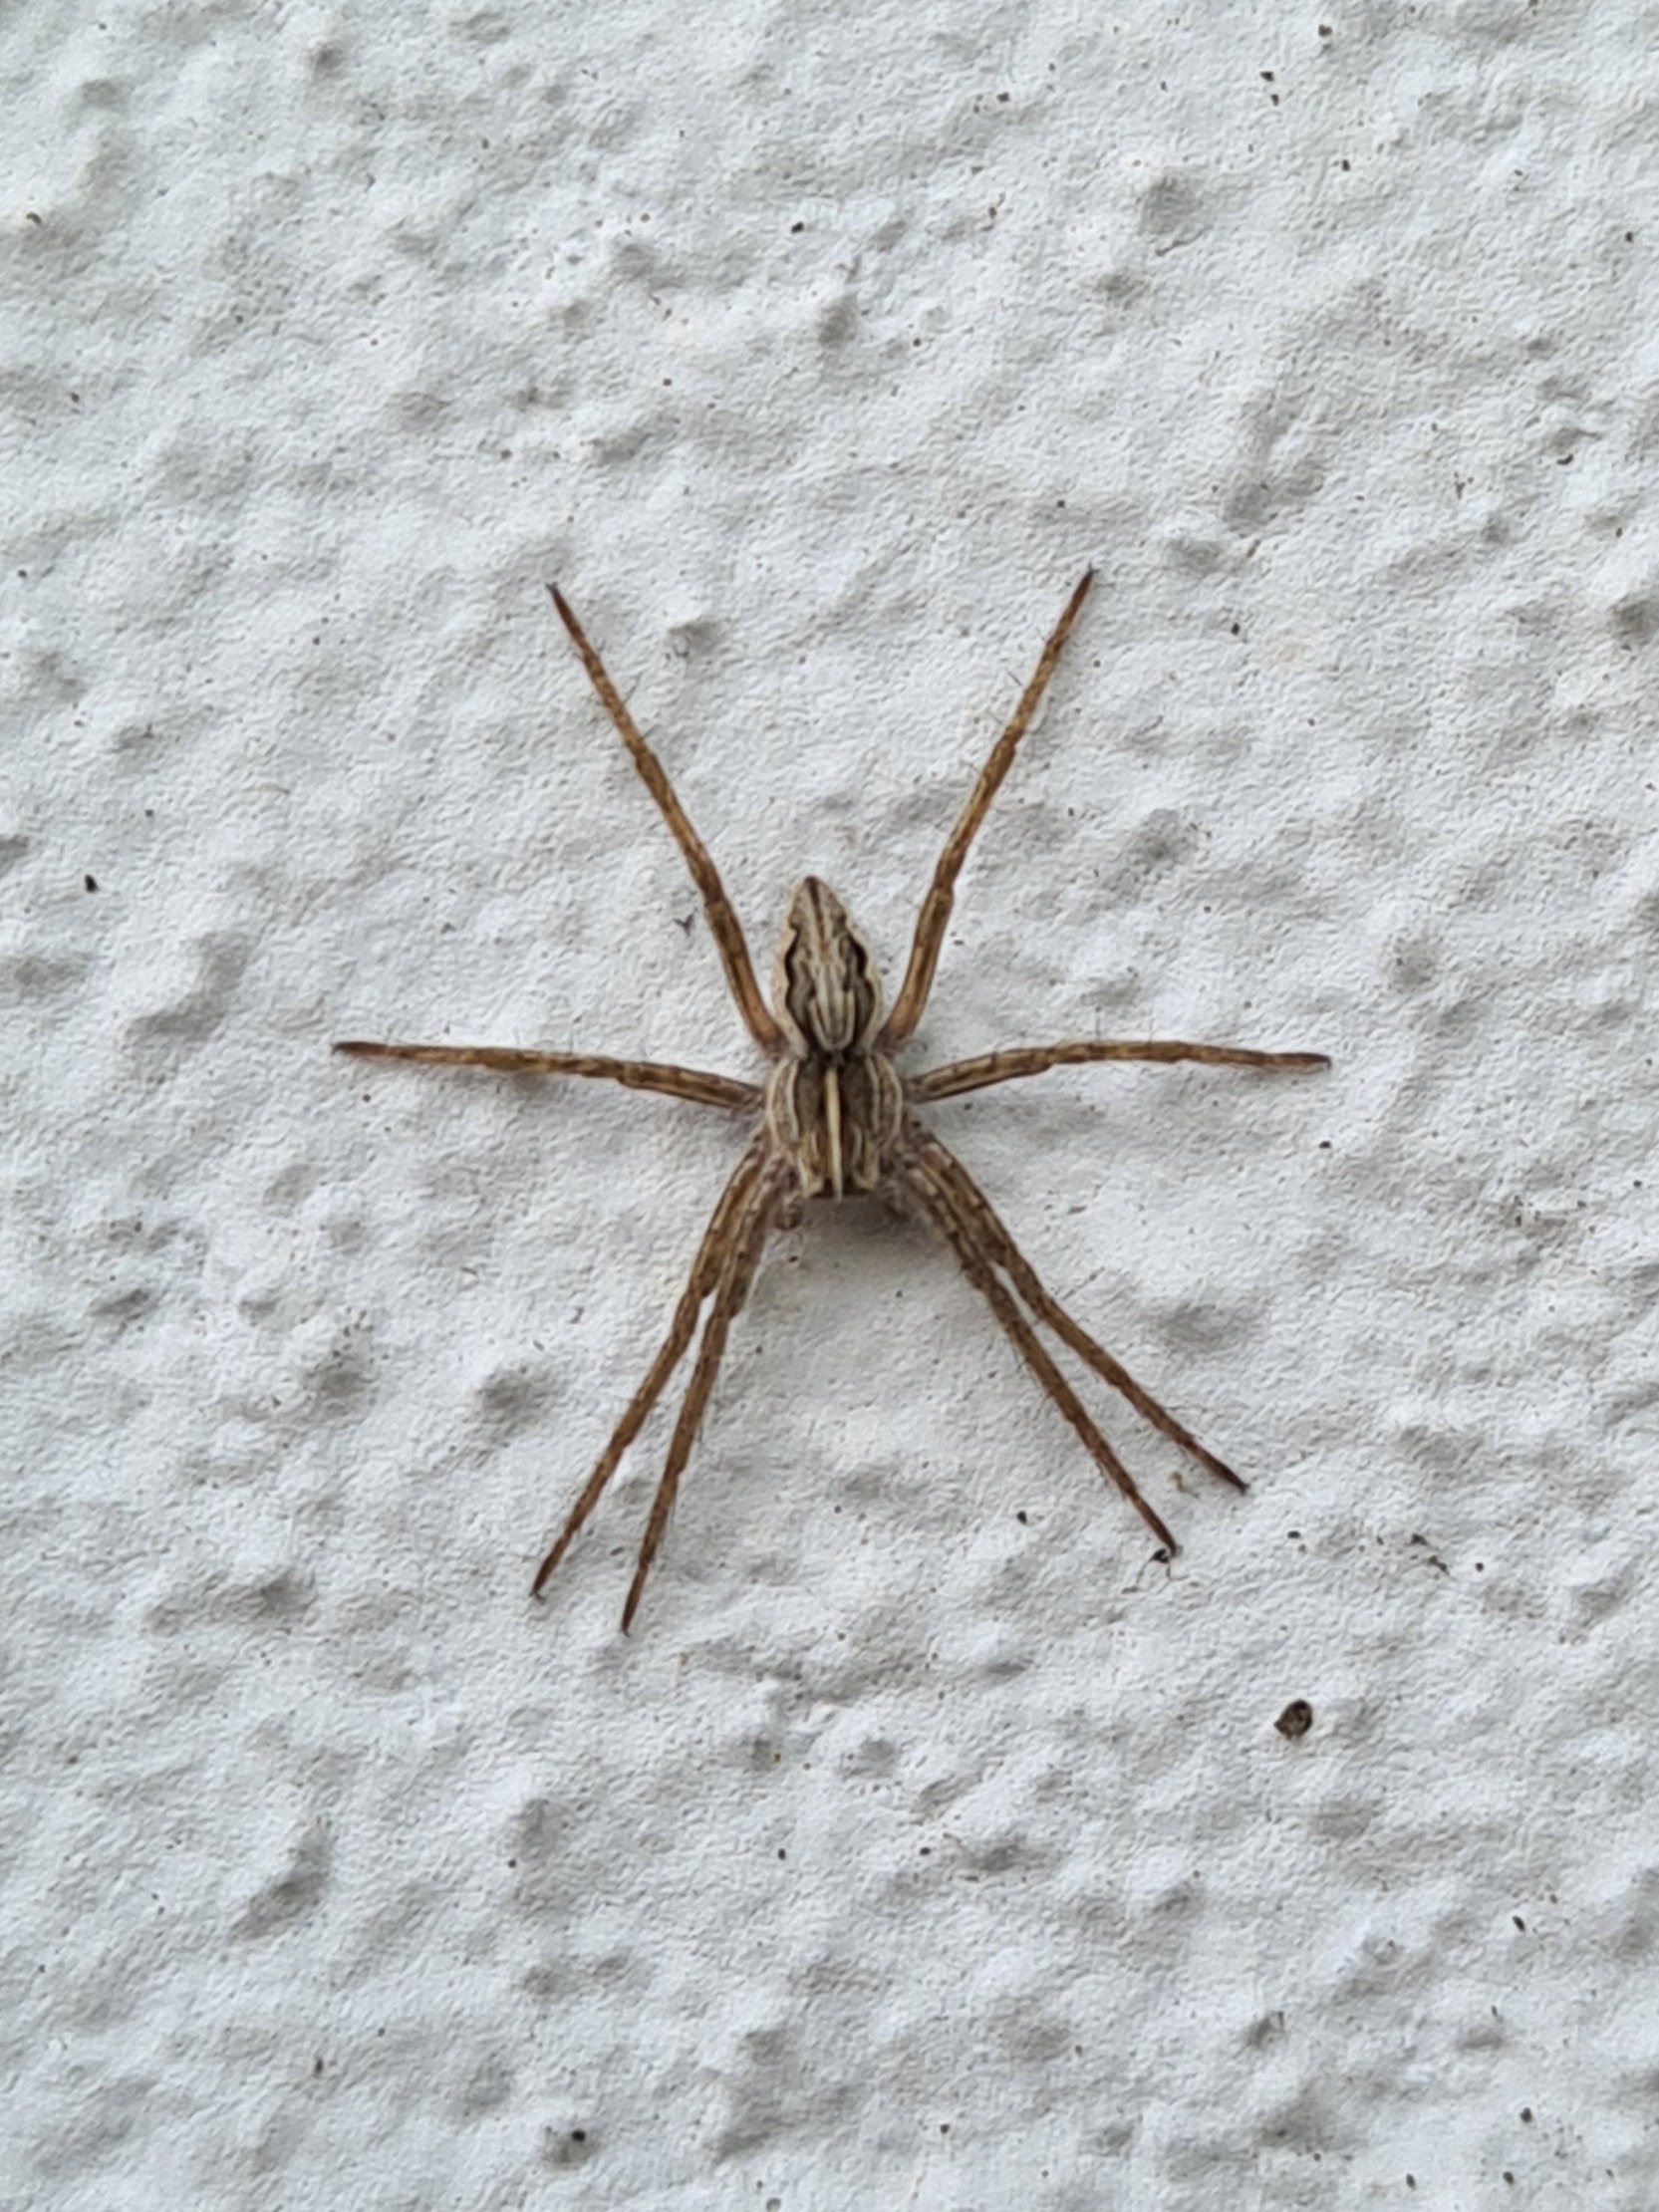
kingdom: Animalia
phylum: Arthropoda
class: Arachnida
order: Araneae
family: Pisauridae
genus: Pisaura
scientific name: Pisaura mirabilis
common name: Almindelig rovedderkop
